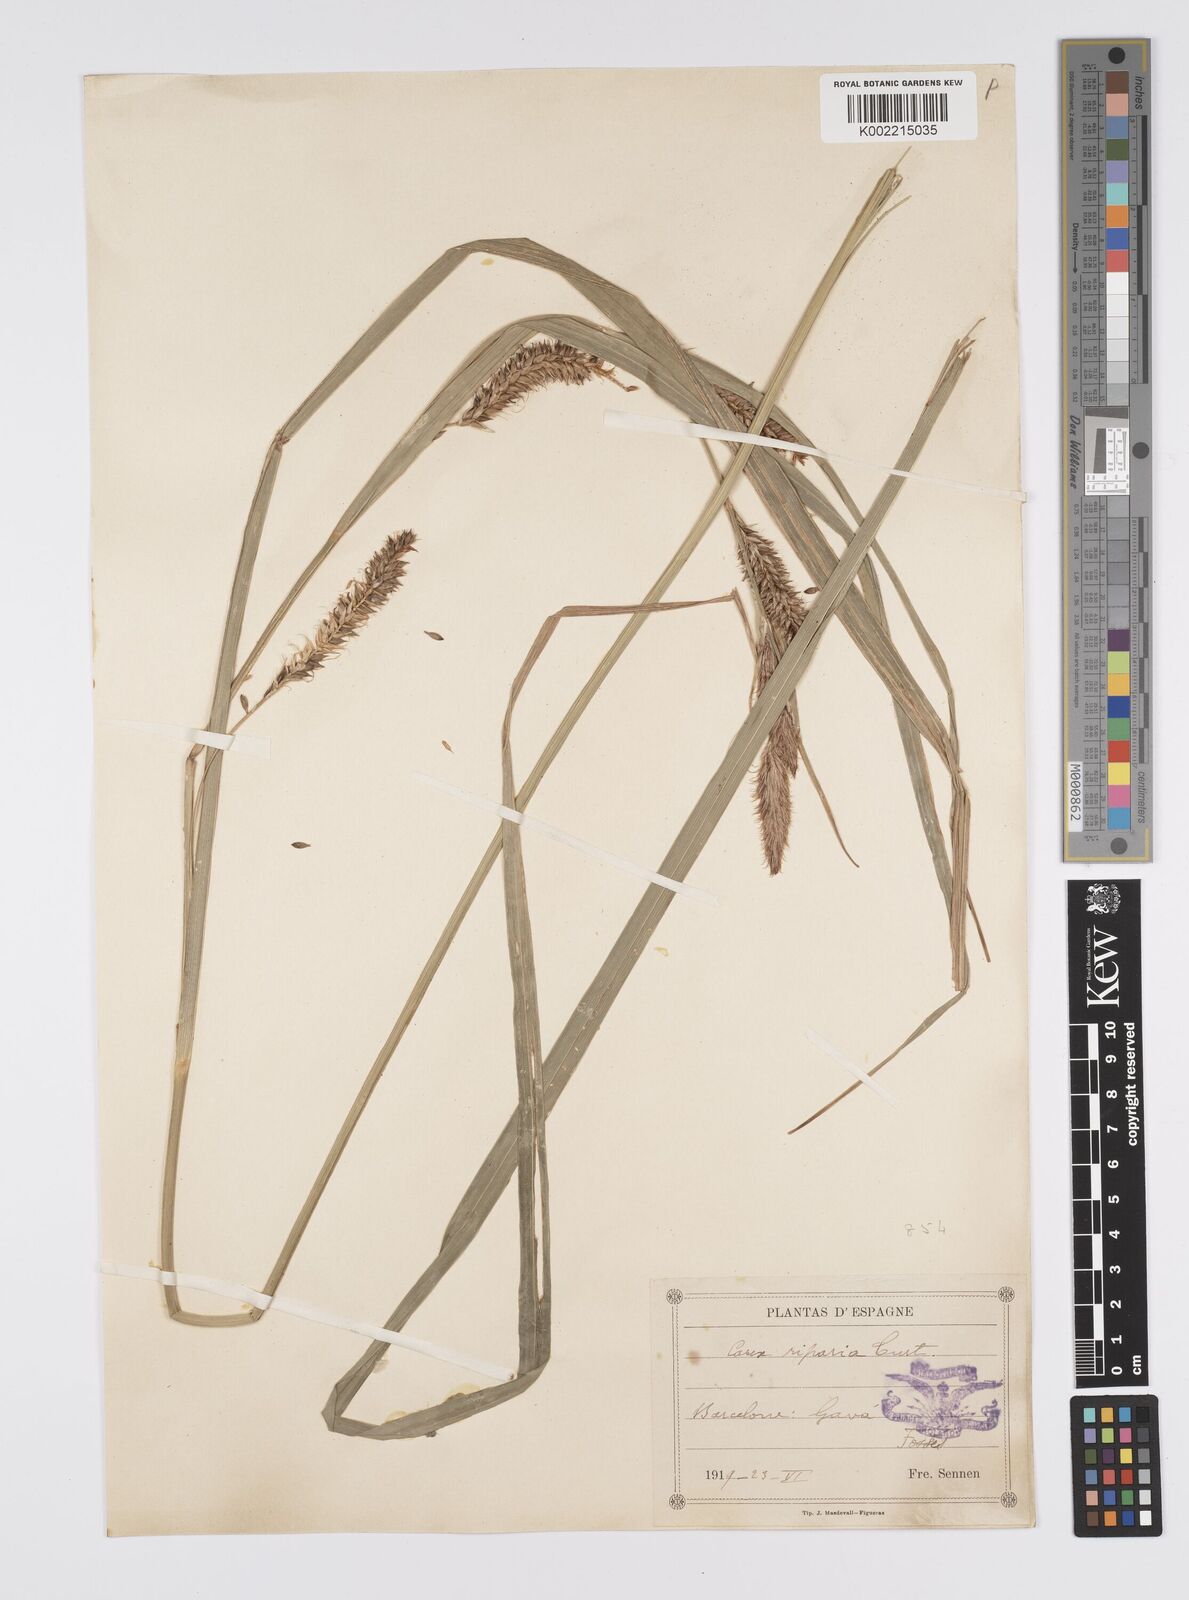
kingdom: Plantae
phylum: Tracheophyta
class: Liliopsida
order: Poales
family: Cyperaceae
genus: Carex
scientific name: Carex riparia
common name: Greater pond-sedge
